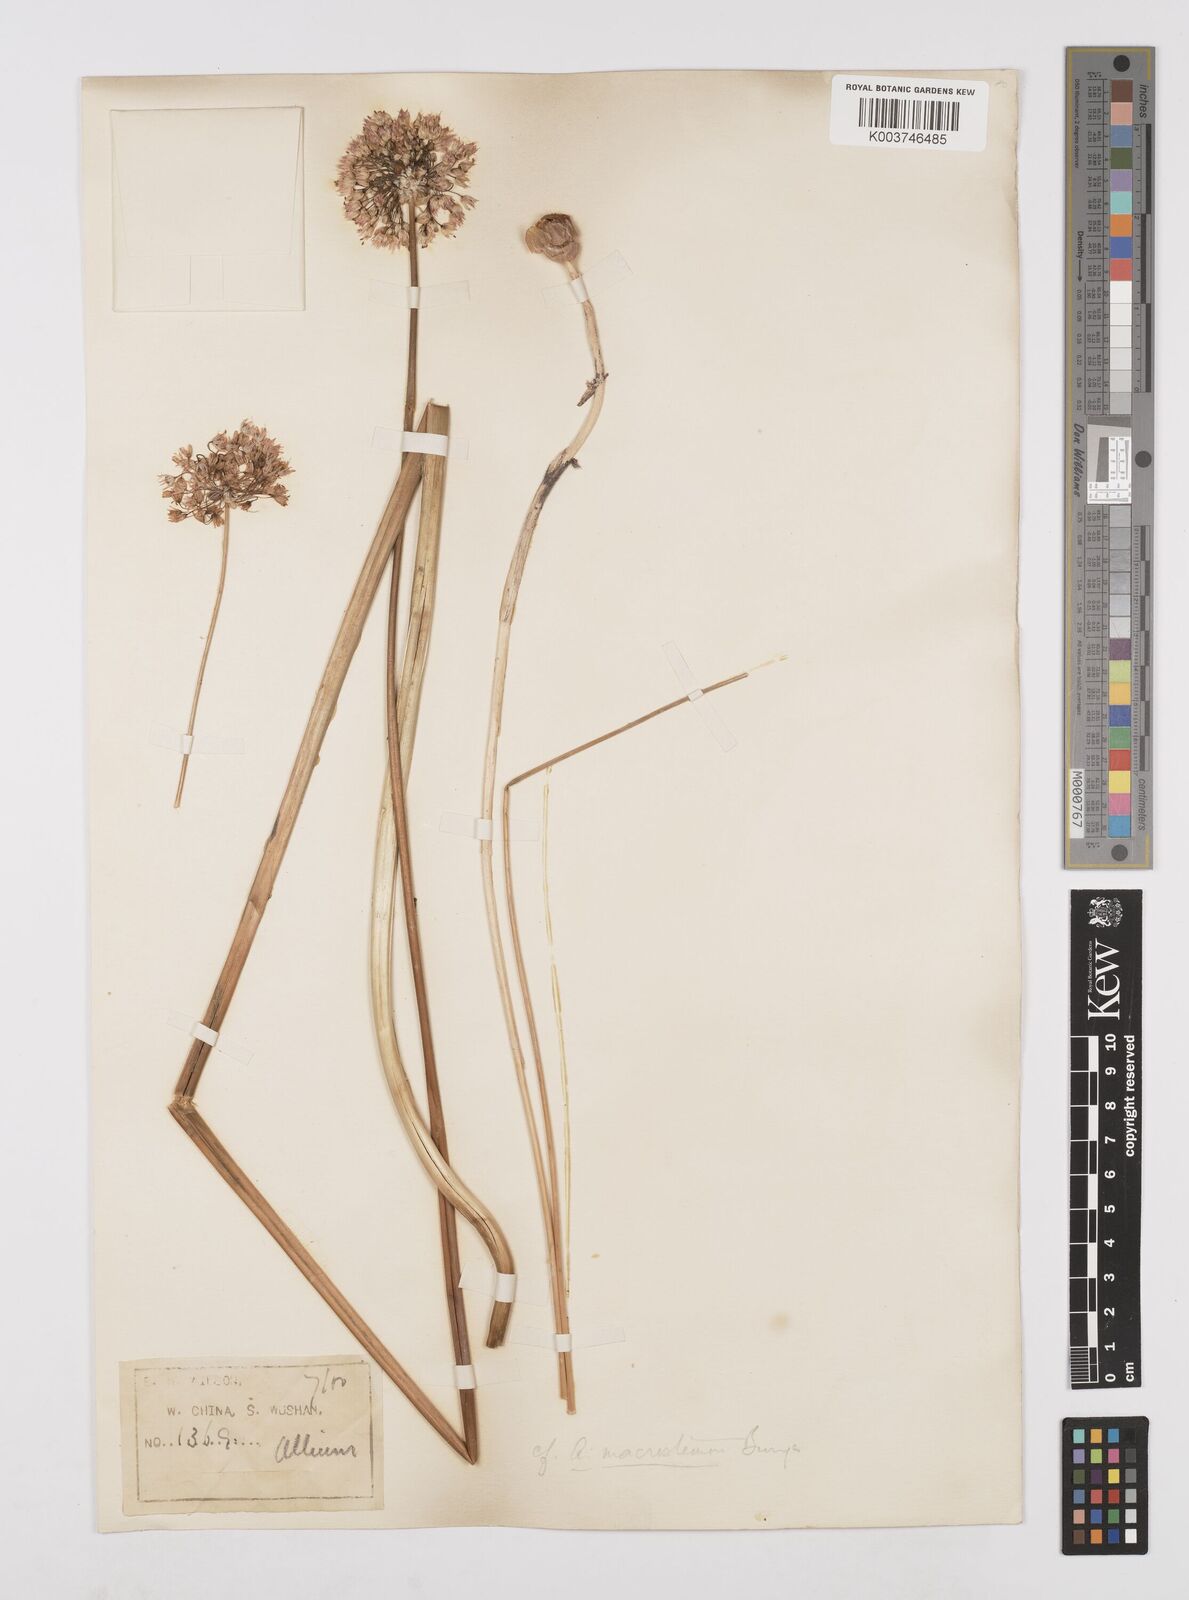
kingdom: Plantae
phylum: Tracheophyta
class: Liliopsida
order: Asparagales
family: Amaryllidaceae
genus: Allium
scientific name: Allium macrostemon
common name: Chinese garlic
